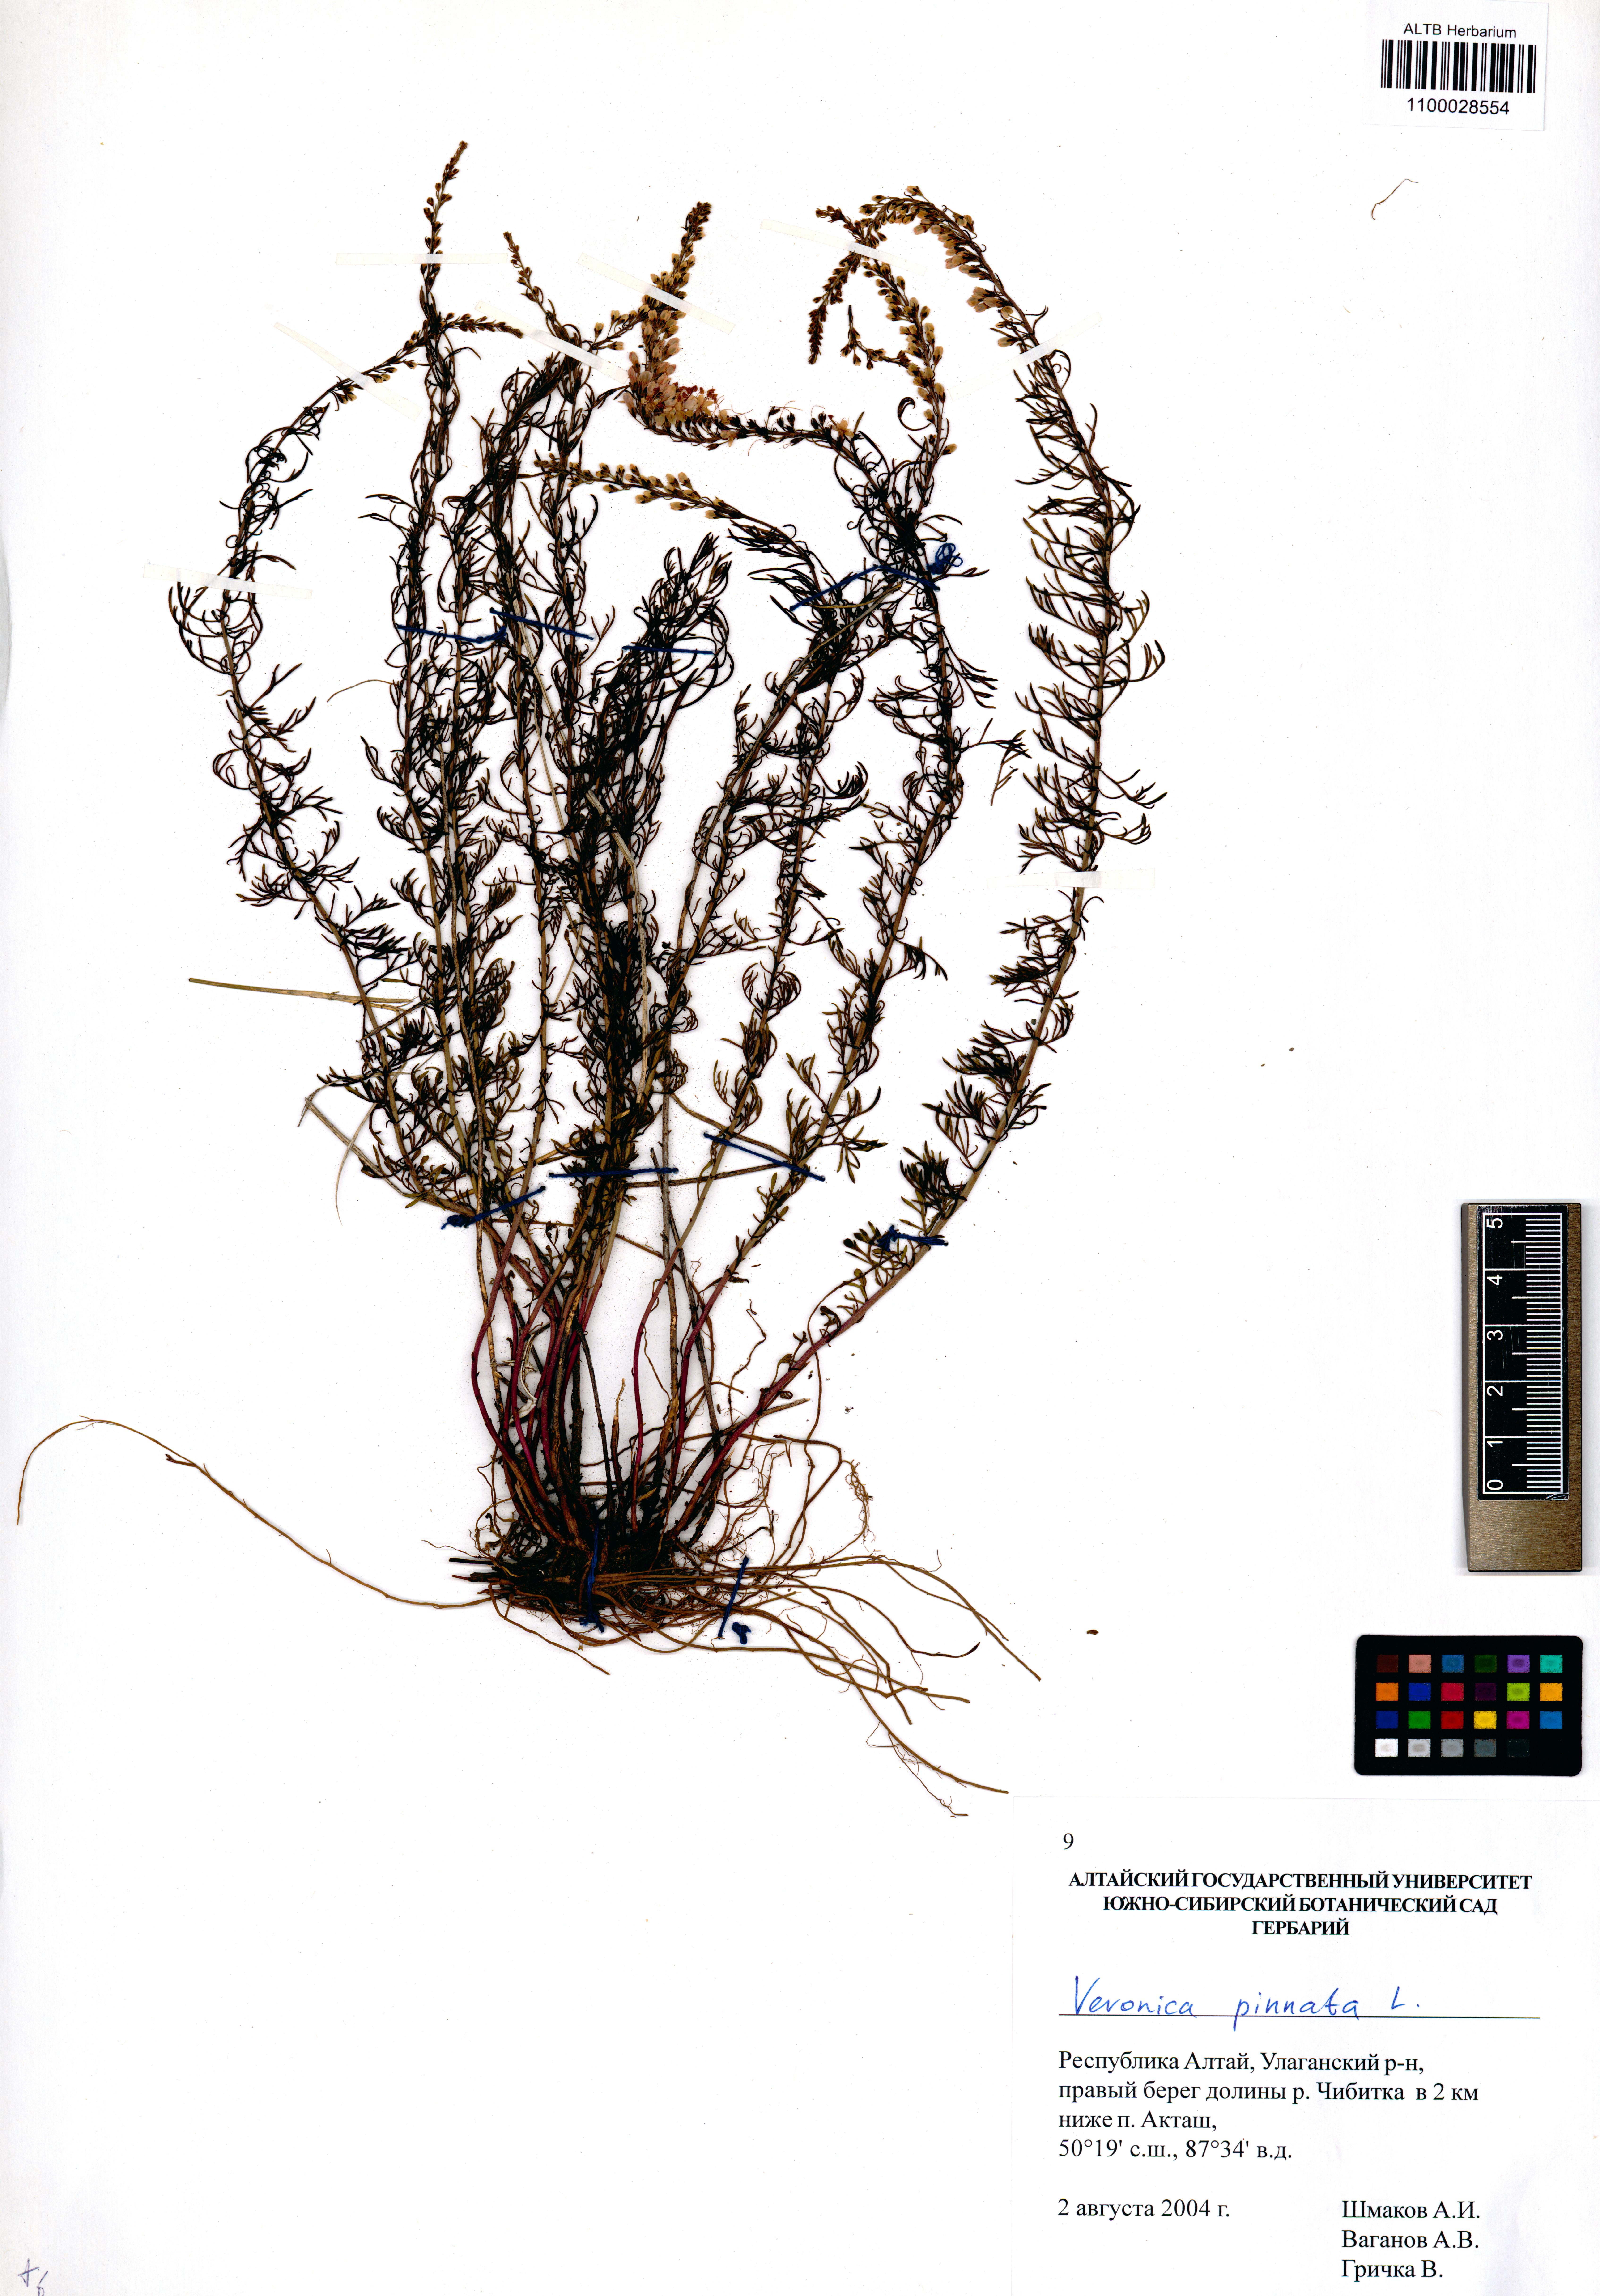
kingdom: Plantae
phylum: Tracheophyta
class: Magnoliopsida
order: Lamiales
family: Plantaginaceae
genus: Veronica
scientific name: Veronica pinnata
